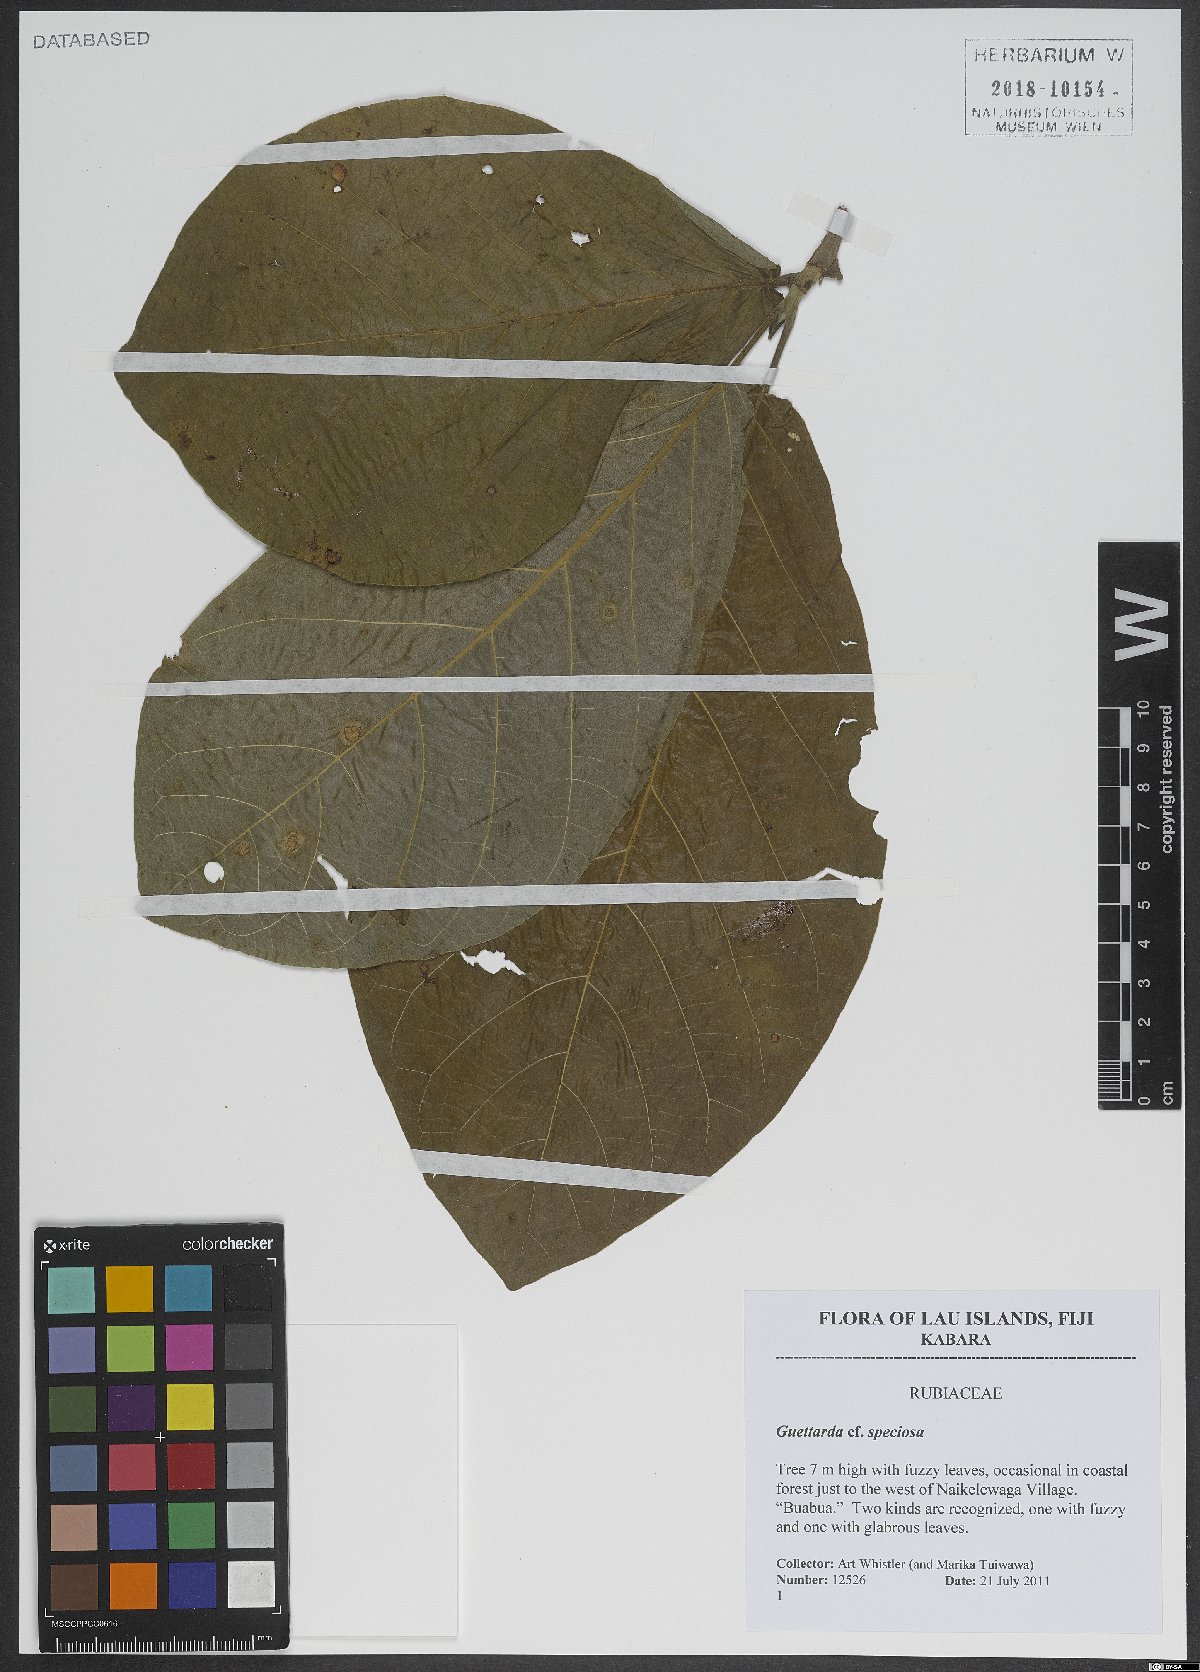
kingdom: Plantae
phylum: Tracheophyta
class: Magnoliopsida
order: Gentianales
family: Rubiaceae
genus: Guettarda
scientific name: Guettarda speciosa
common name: Sea randa
